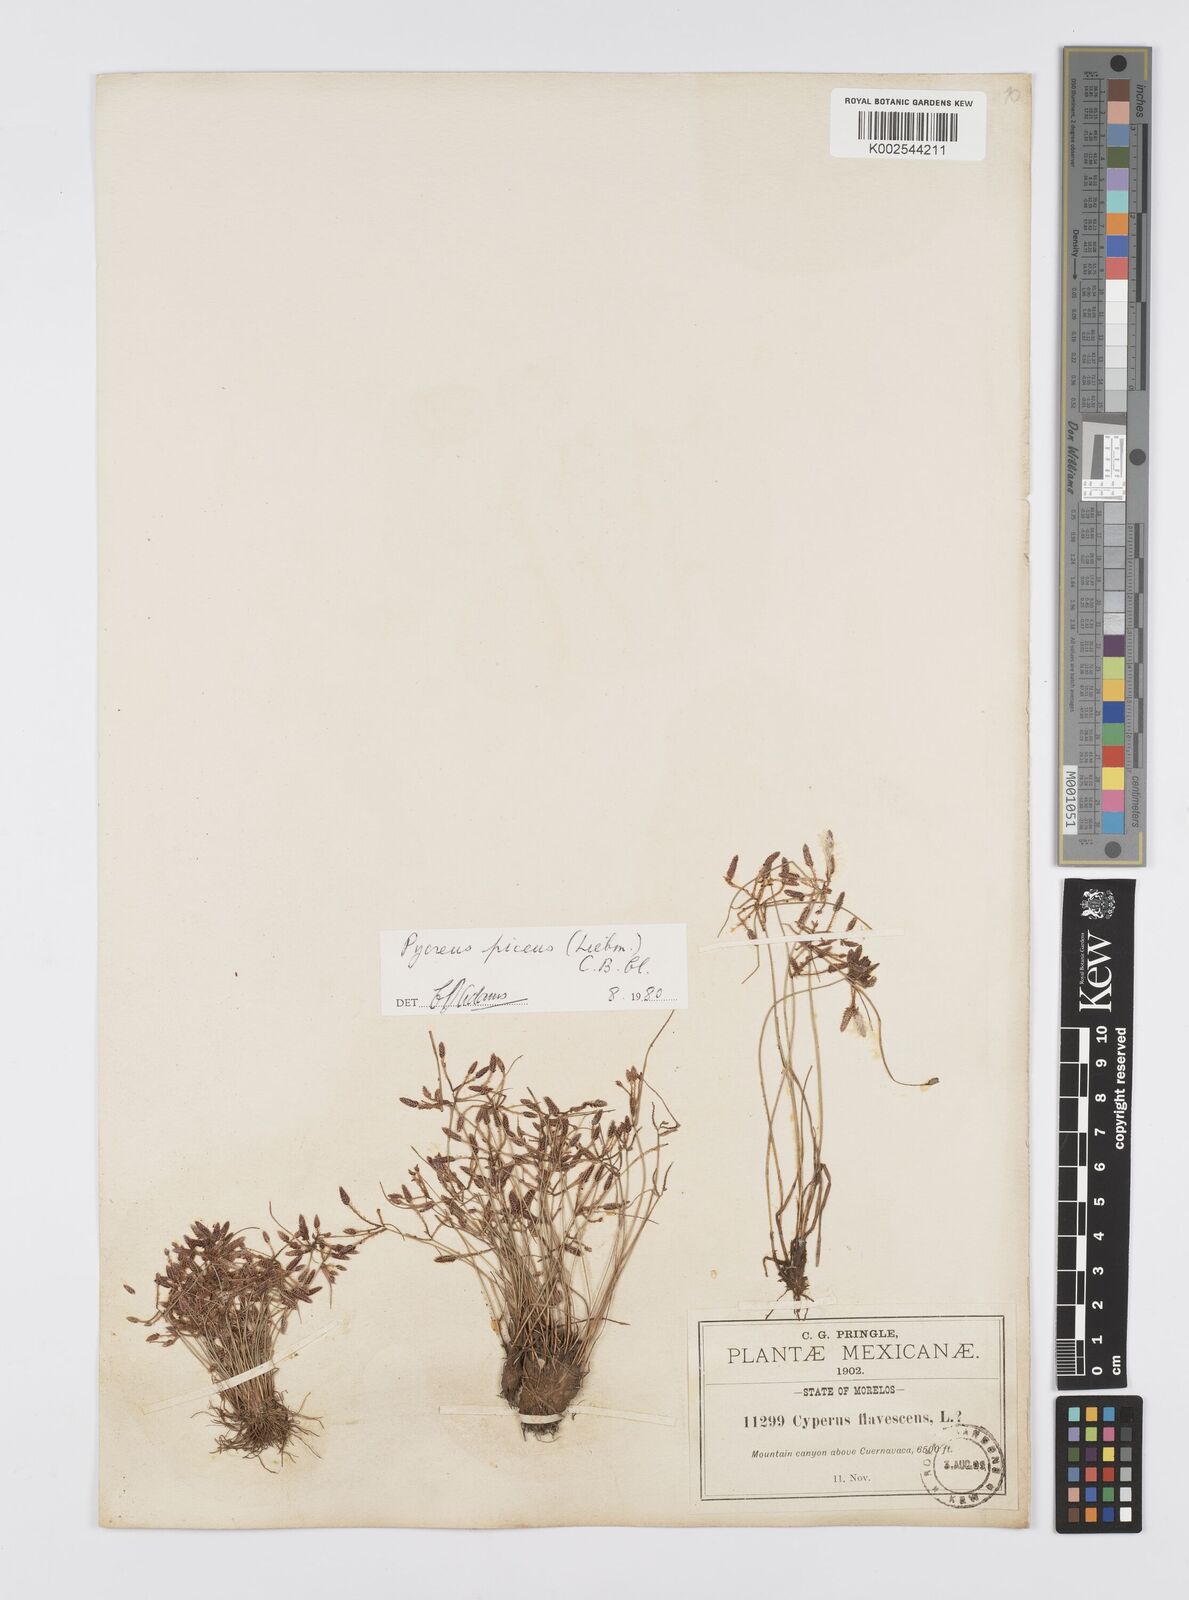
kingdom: Plantae
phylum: Tracheophyta
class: Liliopsida
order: Poales
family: Cyperaceae
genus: Cyperus
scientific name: Cyperus flavescens
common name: Yellow galingale
